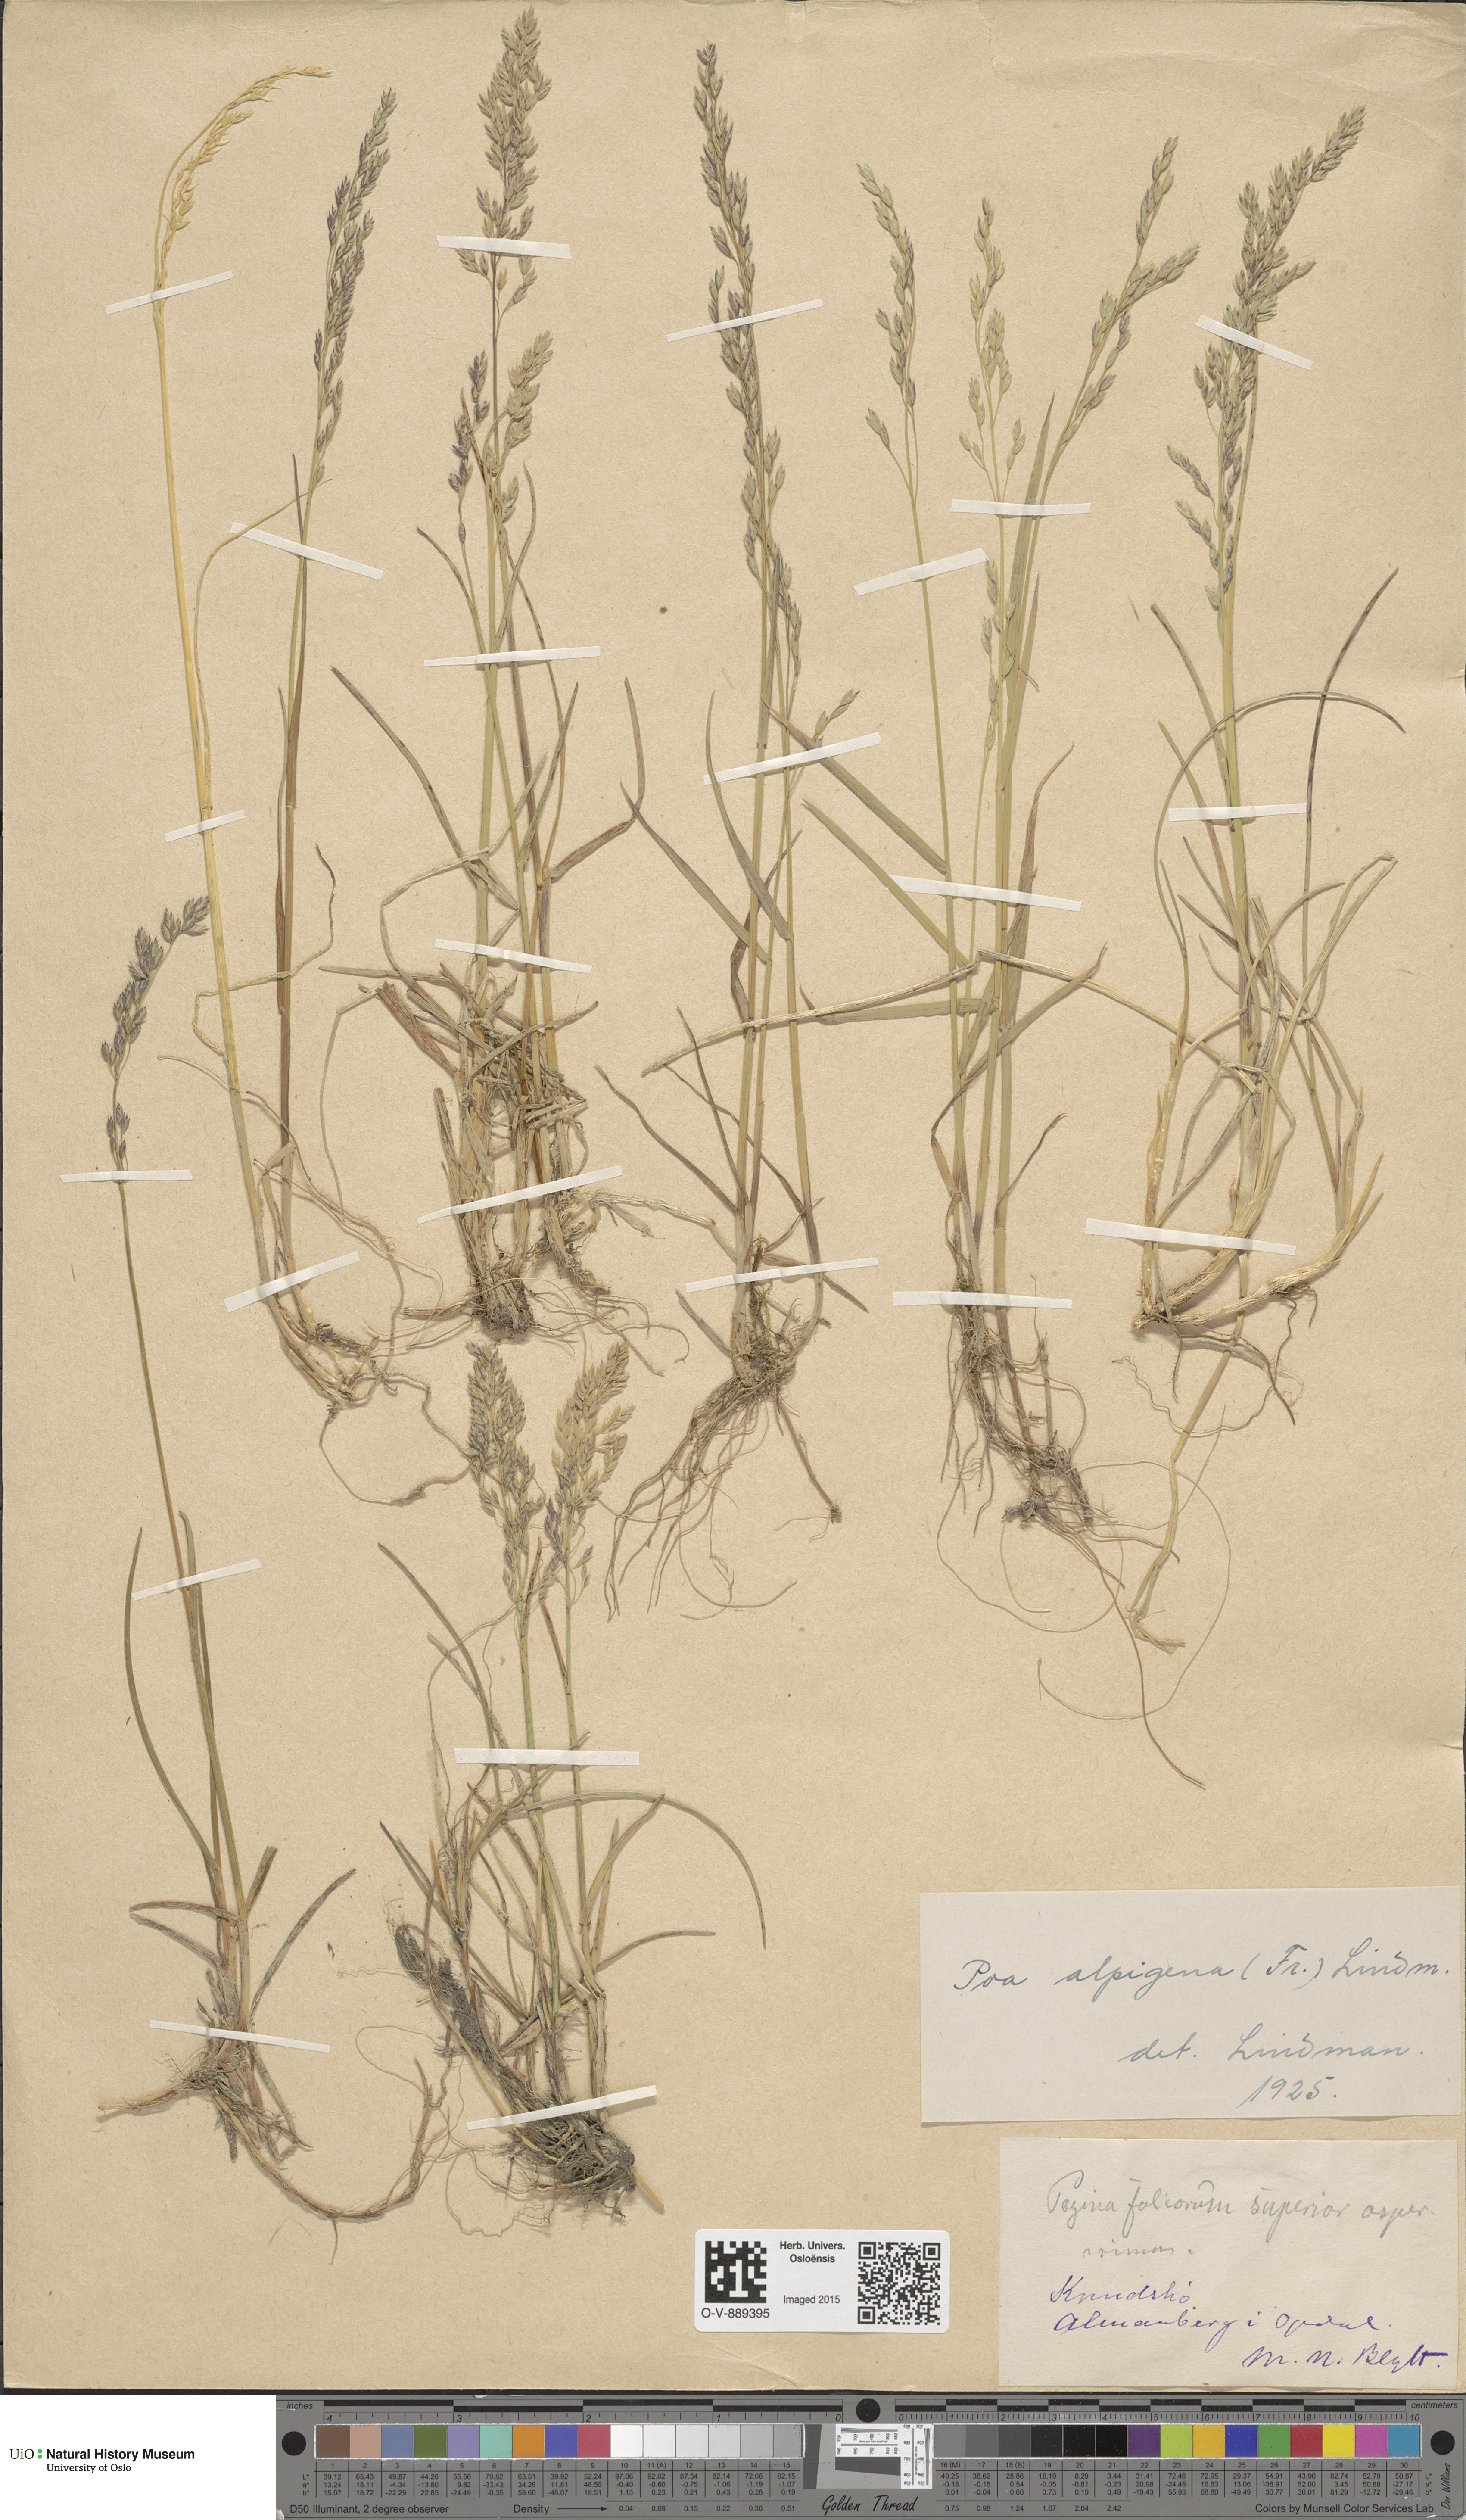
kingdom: Plantae
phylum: Tracheophyta
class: Liliopsida
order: Poales
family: Poaceae
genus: Poa
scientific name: Poa alpigena
